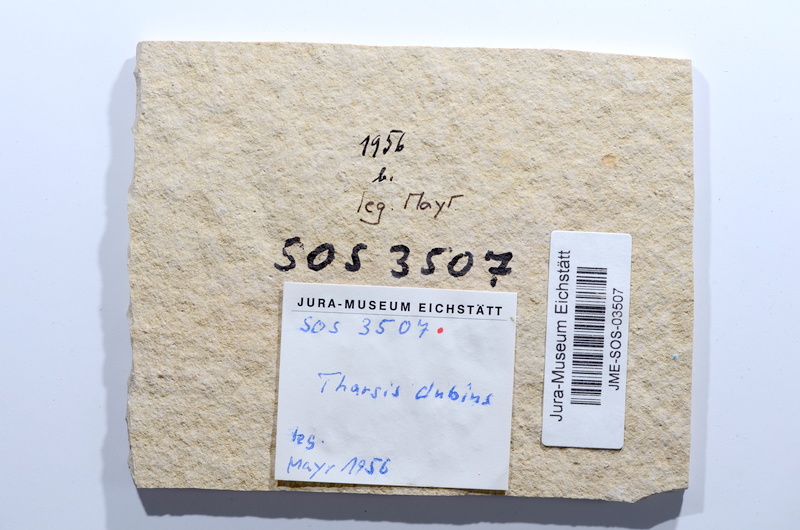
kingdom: Animalia
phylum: Chordata
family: Ascalaboidae
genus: Tharsis
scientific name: Tharsis dubius
